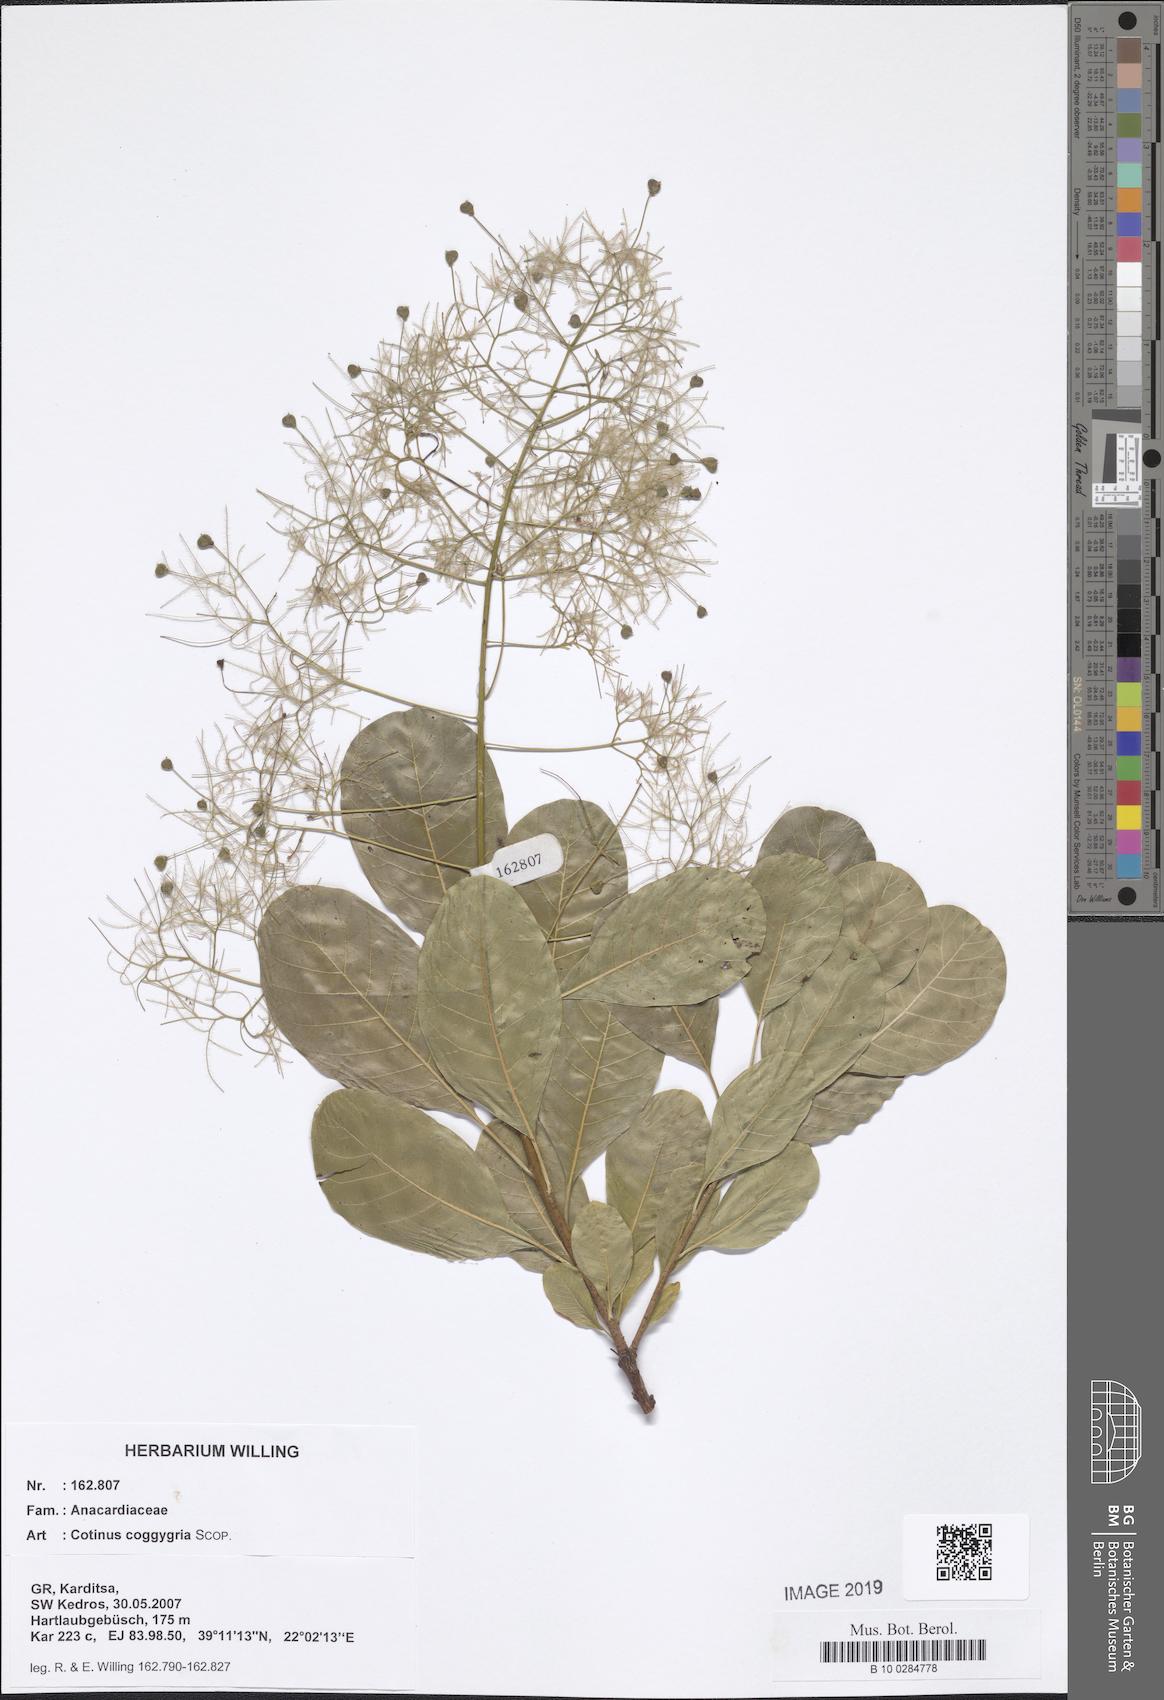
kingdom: Plantae
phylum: Tracheophyta
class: Magnoliopsida
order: Sapindales
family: Anacardiaceae
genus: Cotinus
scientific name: Cotinus coggygria
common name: Smoke-tree
